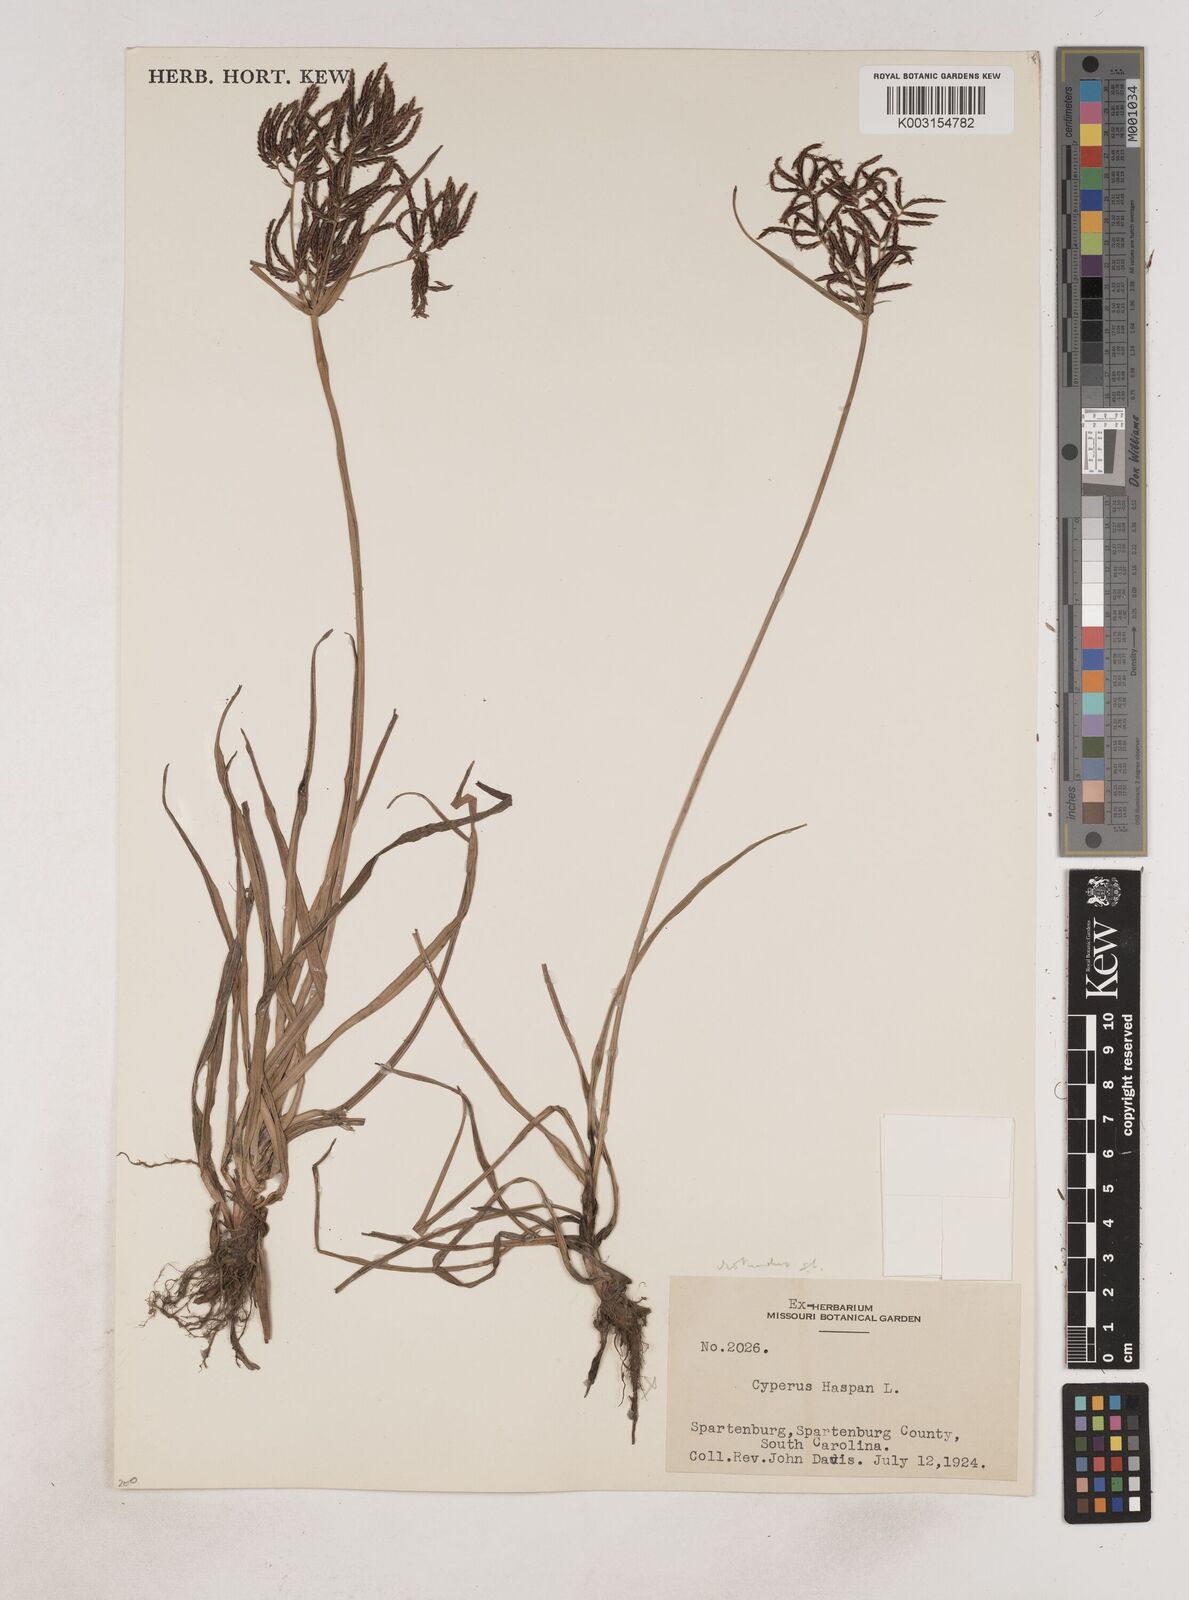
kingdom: Plantae
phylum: Tracheophyta
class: Liliopsida
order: Poales
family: Cyperaceae
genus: Cyperus
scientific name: Cyperus rotundus
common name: Nutgrass
